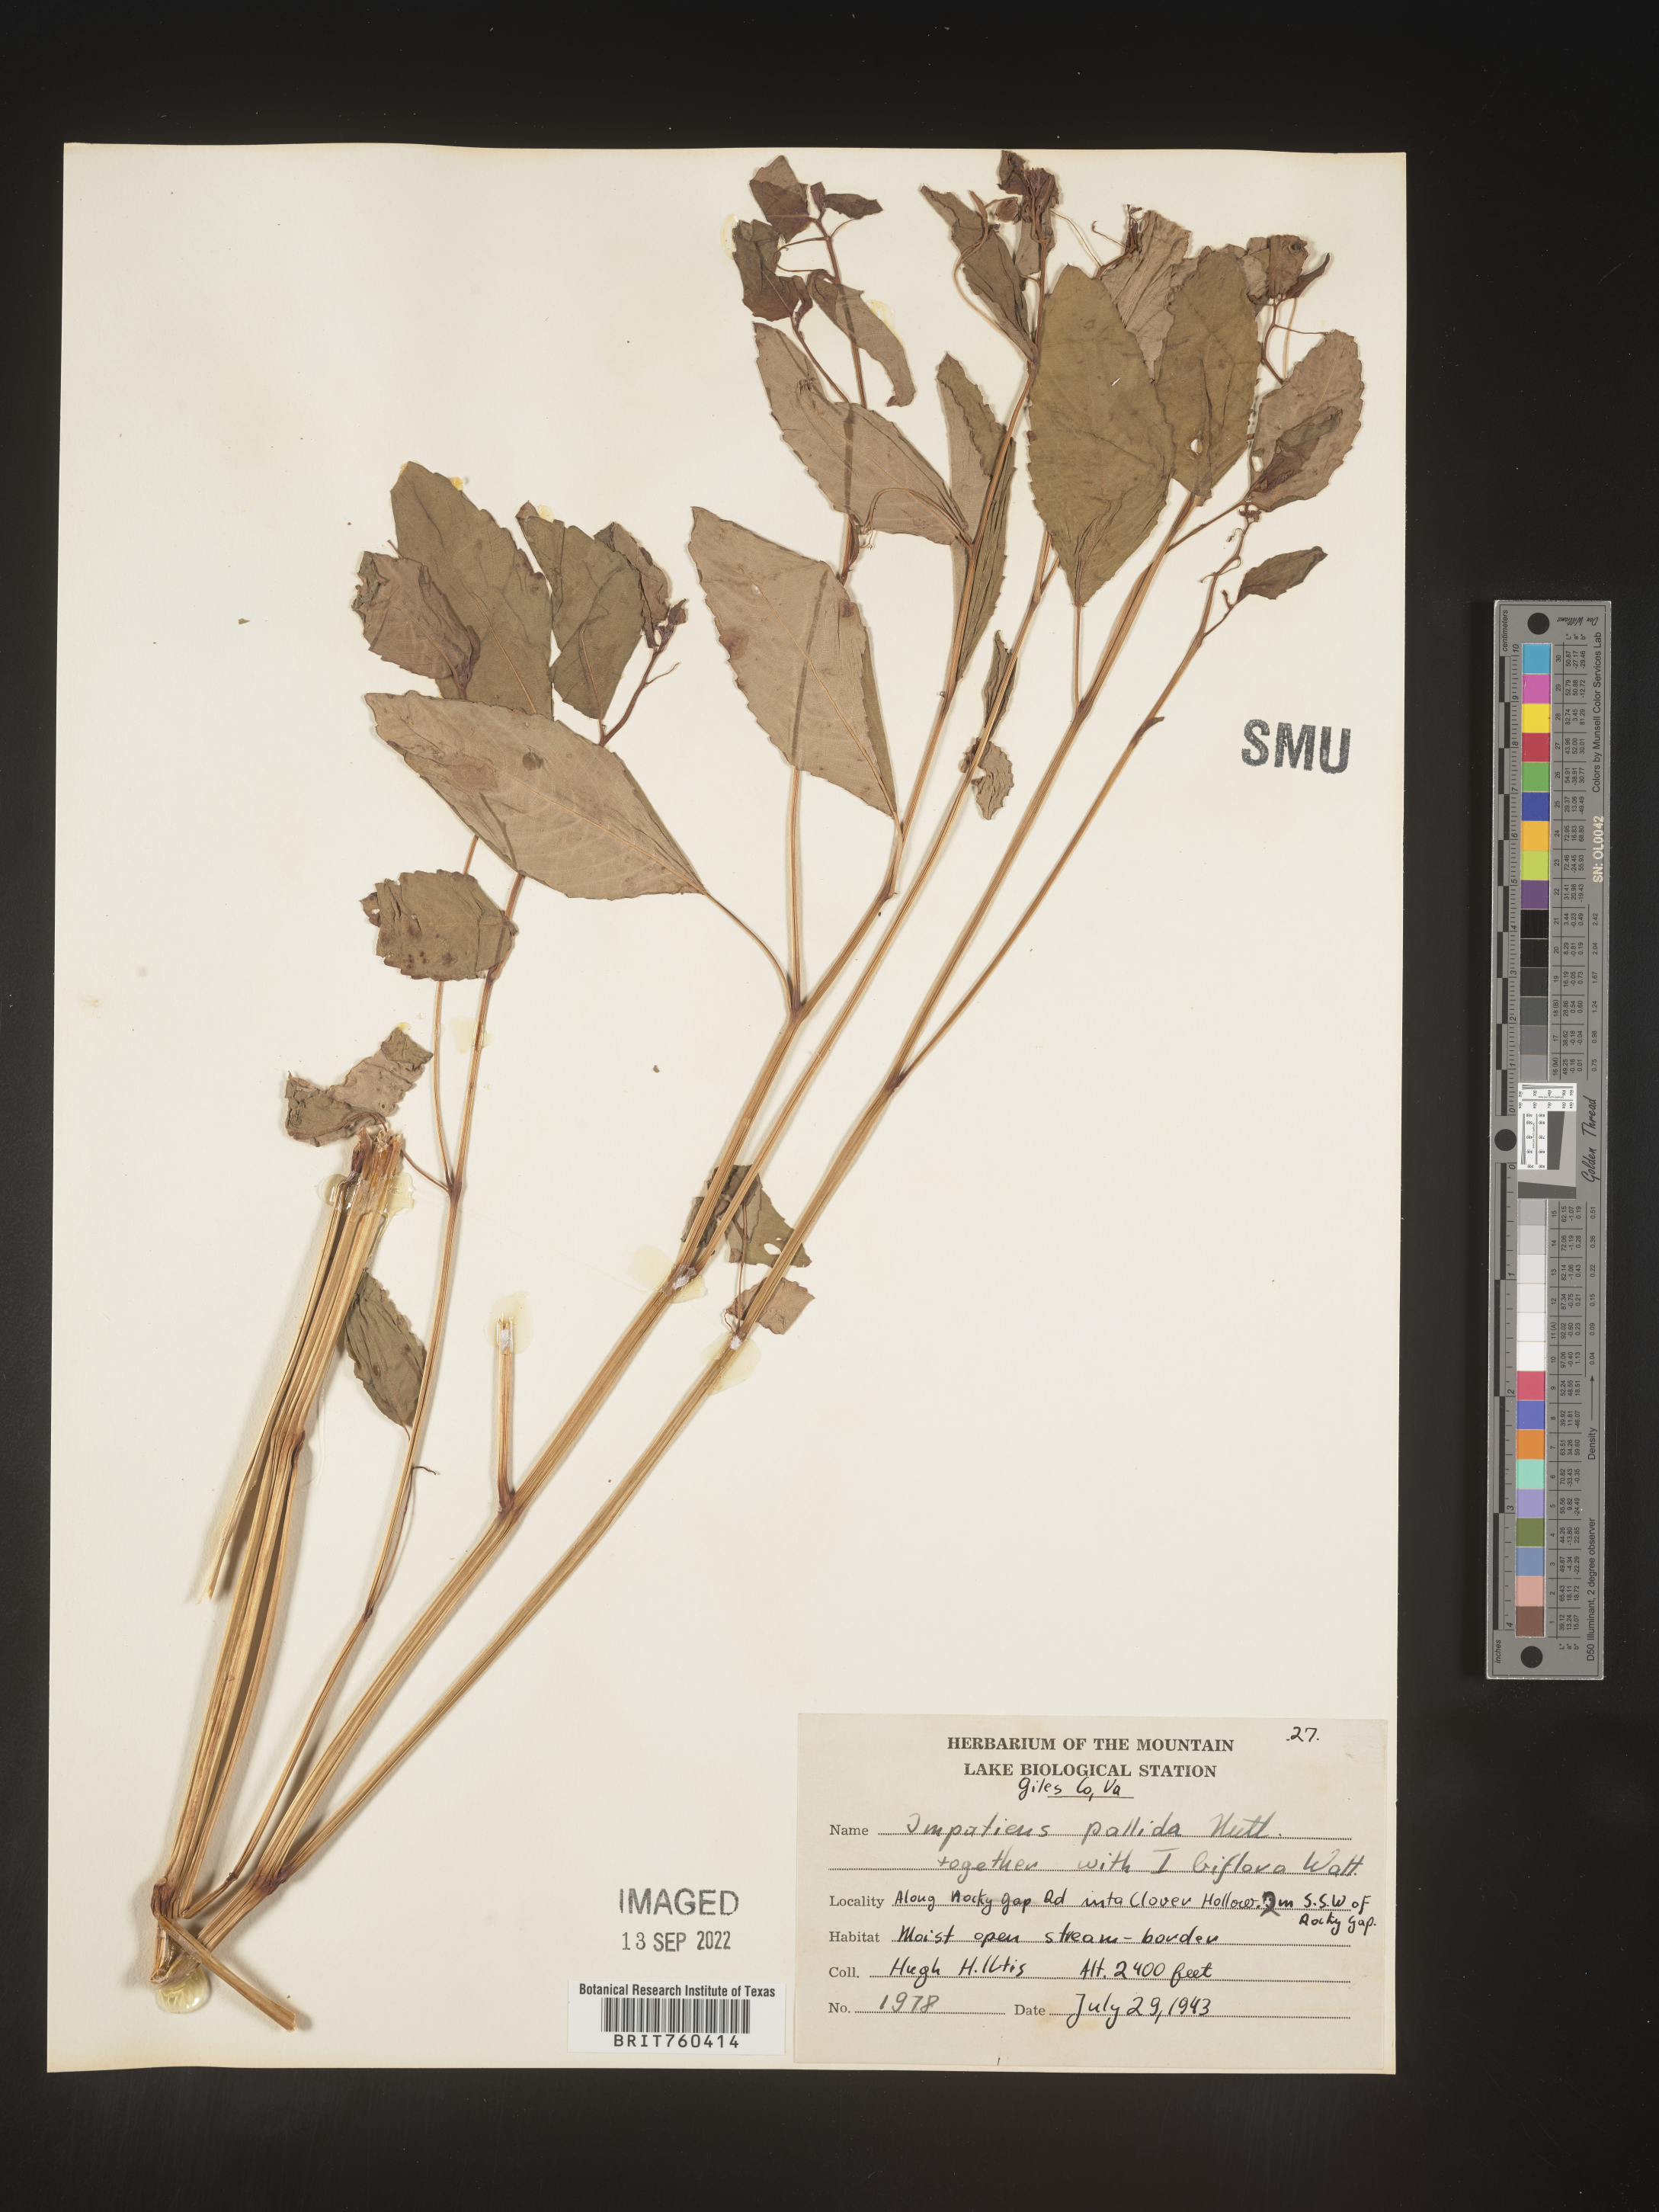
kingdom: Plantae
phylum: Tracheophyta
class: Magnoliopsida
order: Ericales
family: Balsaminaceae
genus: Impatiens
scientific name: Impatiens pallida
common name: Pale snapweed
